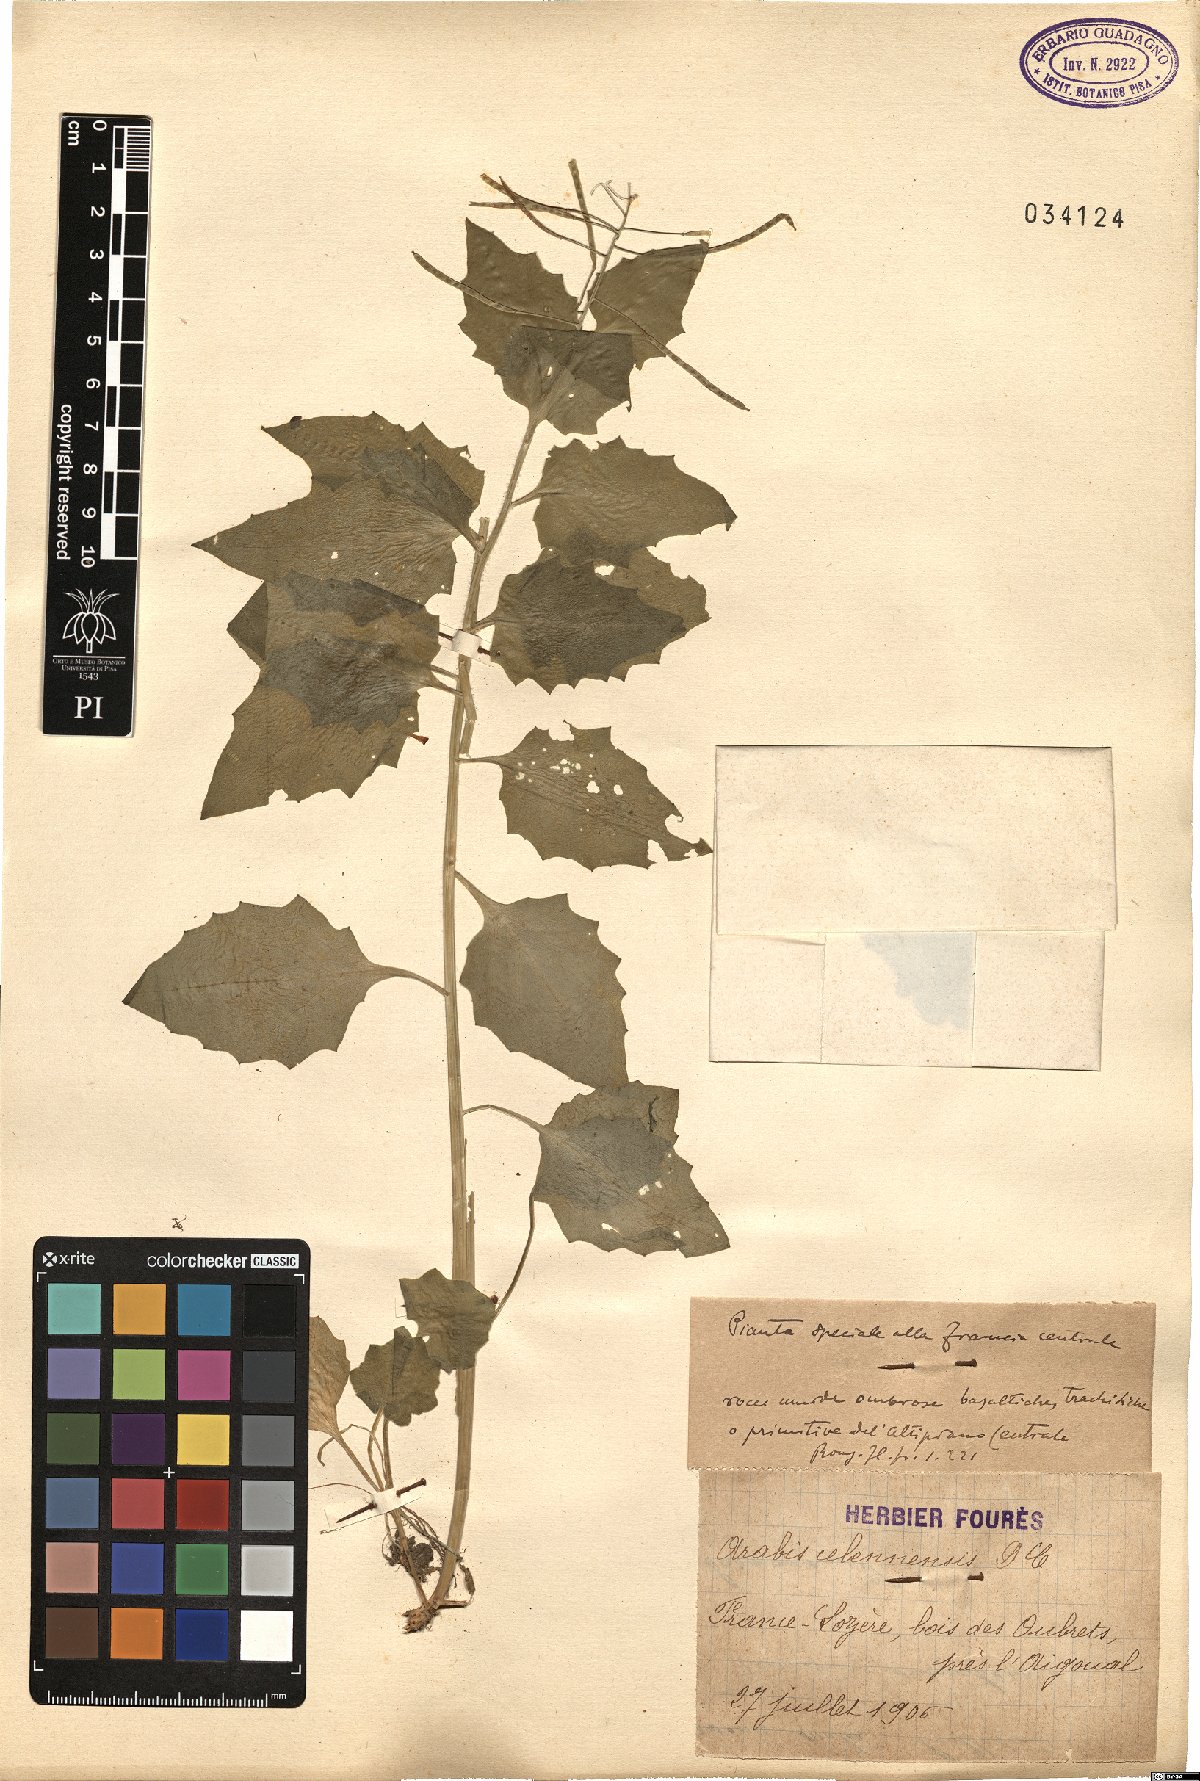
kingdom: Plantae
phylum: Tracheophyta
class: Magnoliopsida
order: Brassicales
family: Brassicaceae
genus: Arabidopsis
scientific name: Arabidopsis cebennensis
